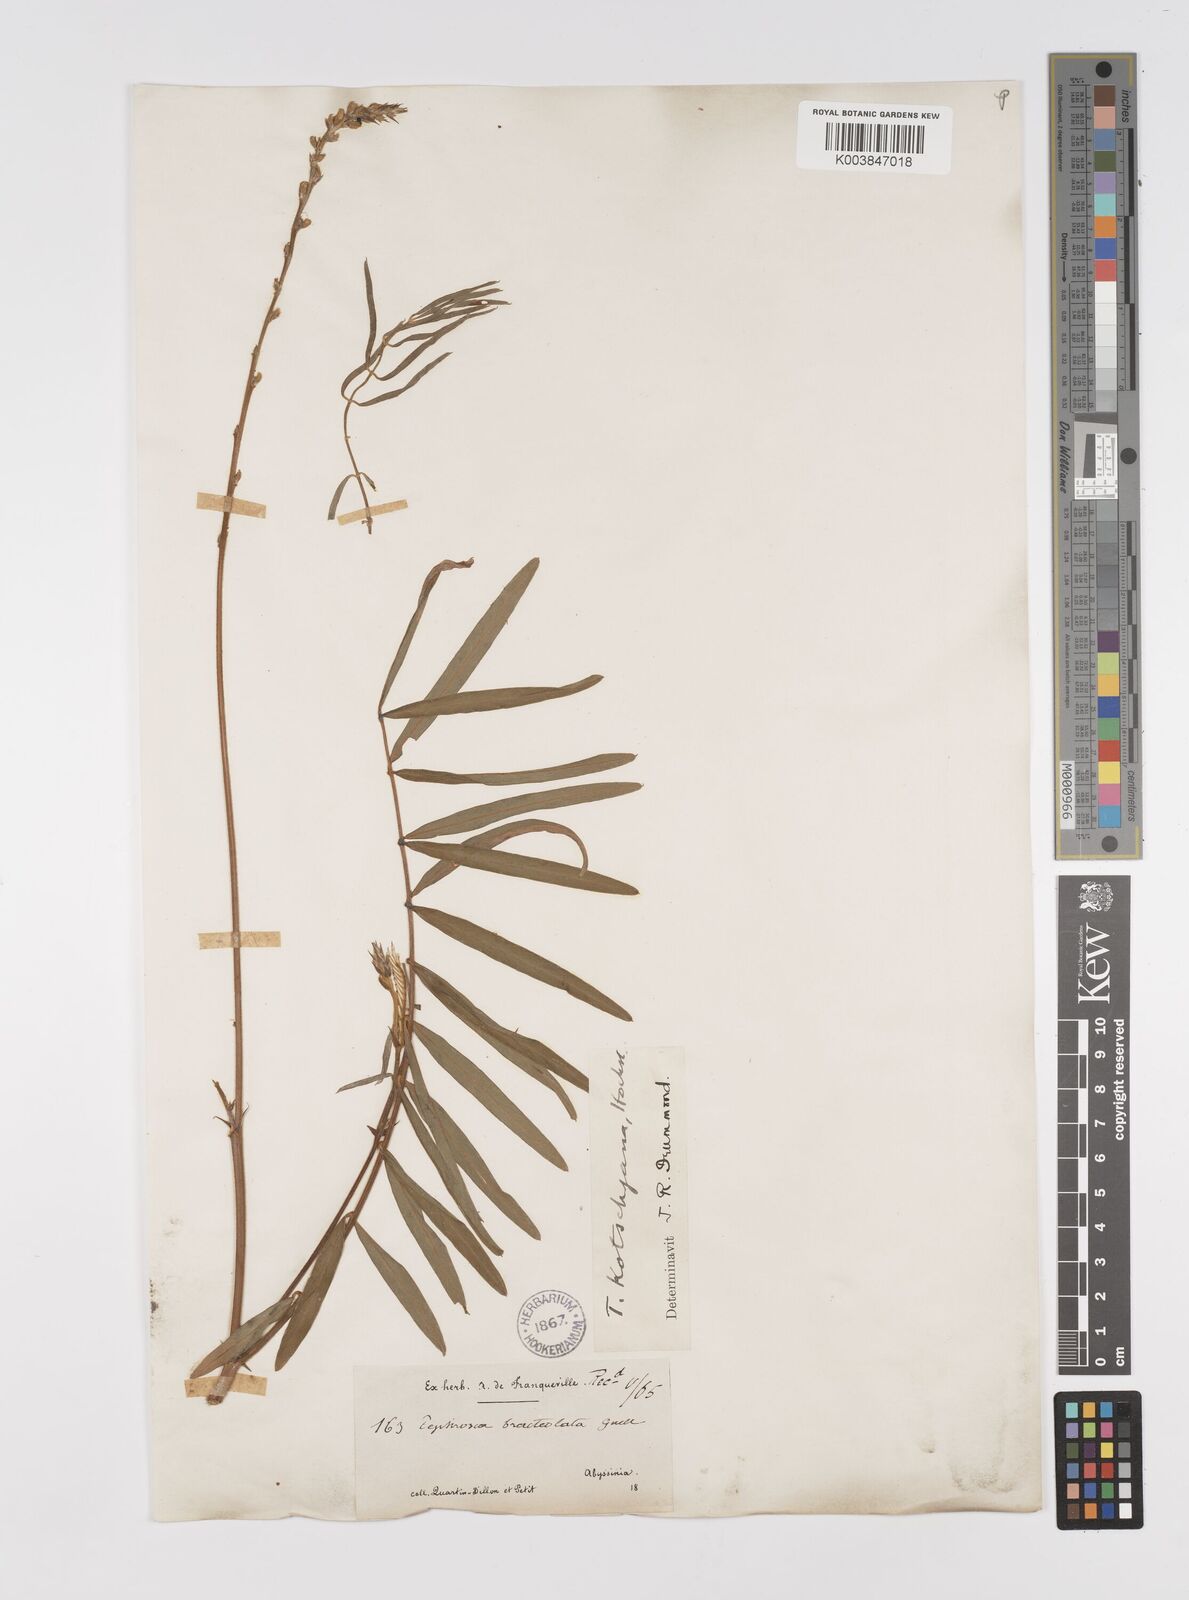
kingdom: Plantae
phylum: Tracheophyta
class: Magnoliopsida
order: Fabales
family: Fabaceae
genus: Tephrosia
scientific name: Tephrosia bracteolata
